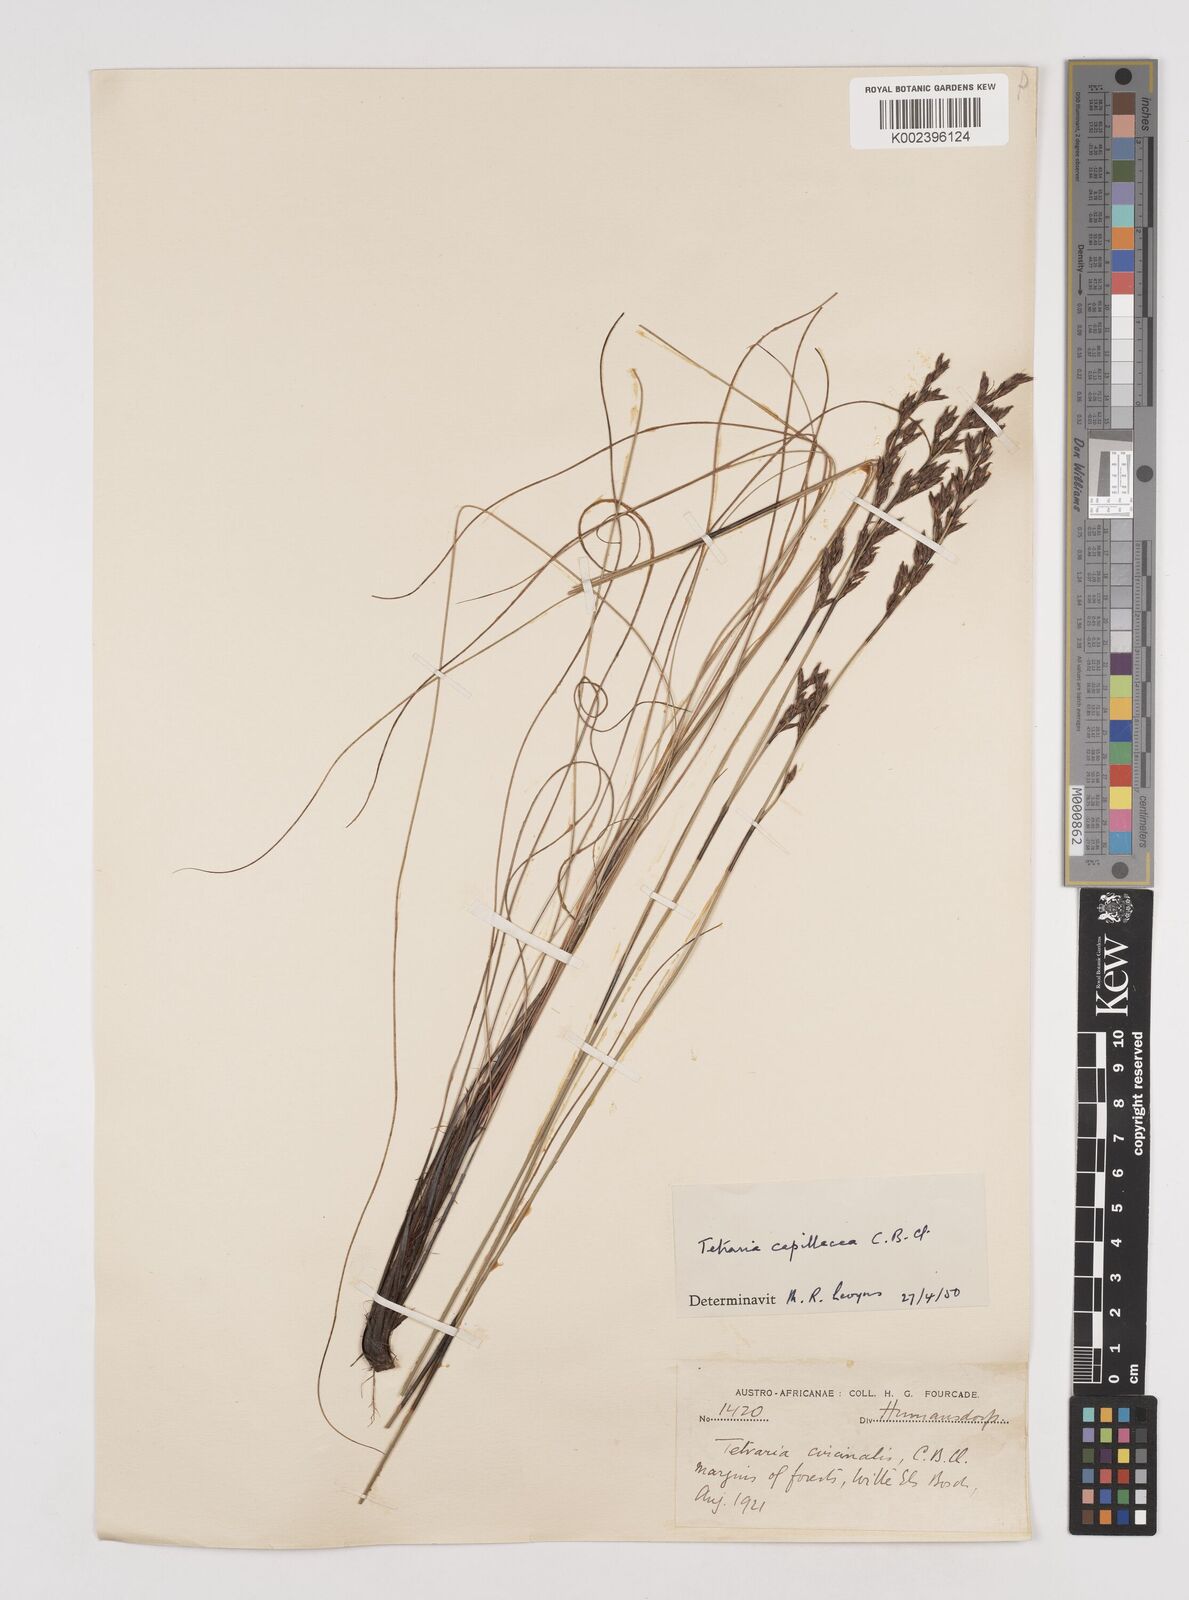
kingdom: Plantae
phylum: Tracheophyta
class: Liliopsida
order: Poales
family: Cyperaceae
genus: Tetraria
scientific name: Tetraria capillacea
